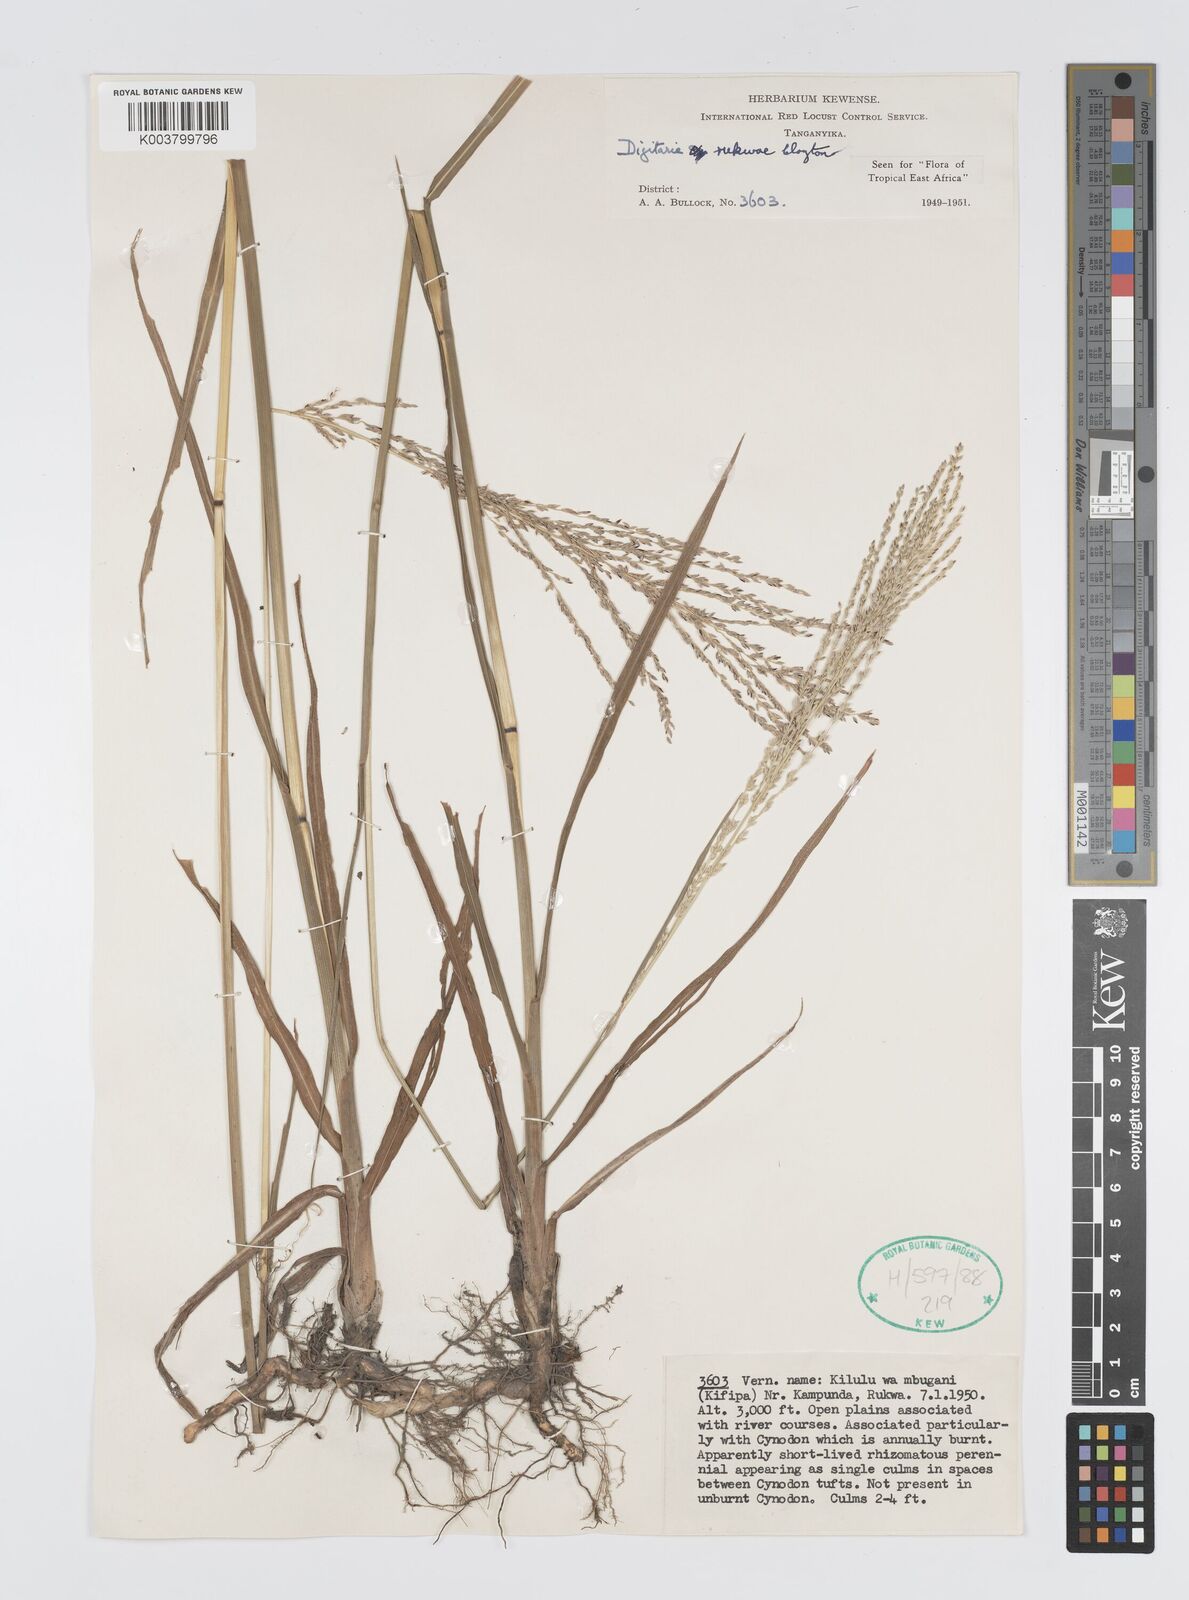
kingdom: Plantae
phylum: Tracheophyta
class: Liliopsida
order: Poales
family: Poaceae
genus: Digitaria
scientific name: Digitaria rukwae
